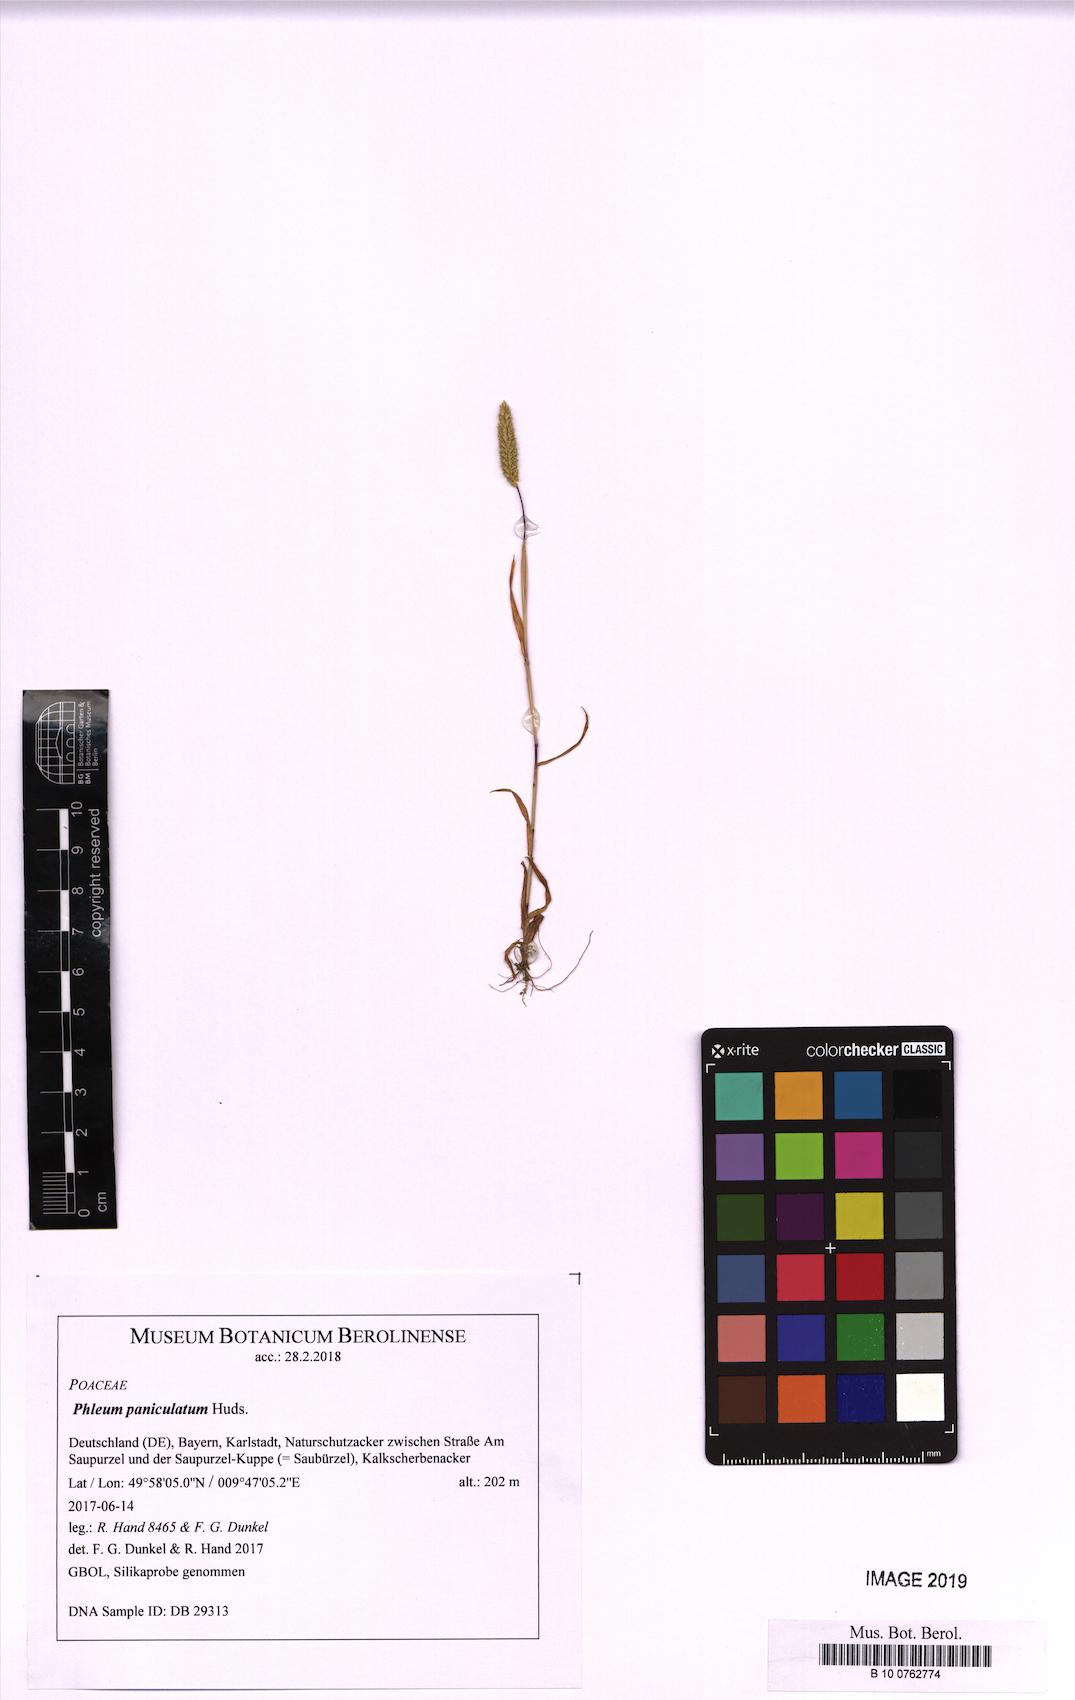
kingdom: Plantae
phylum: Tracheophyta
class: Liliopsida
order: Poales
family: Poaceae
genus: Phleum
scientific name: Phleum paniculatum
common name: British timothy
